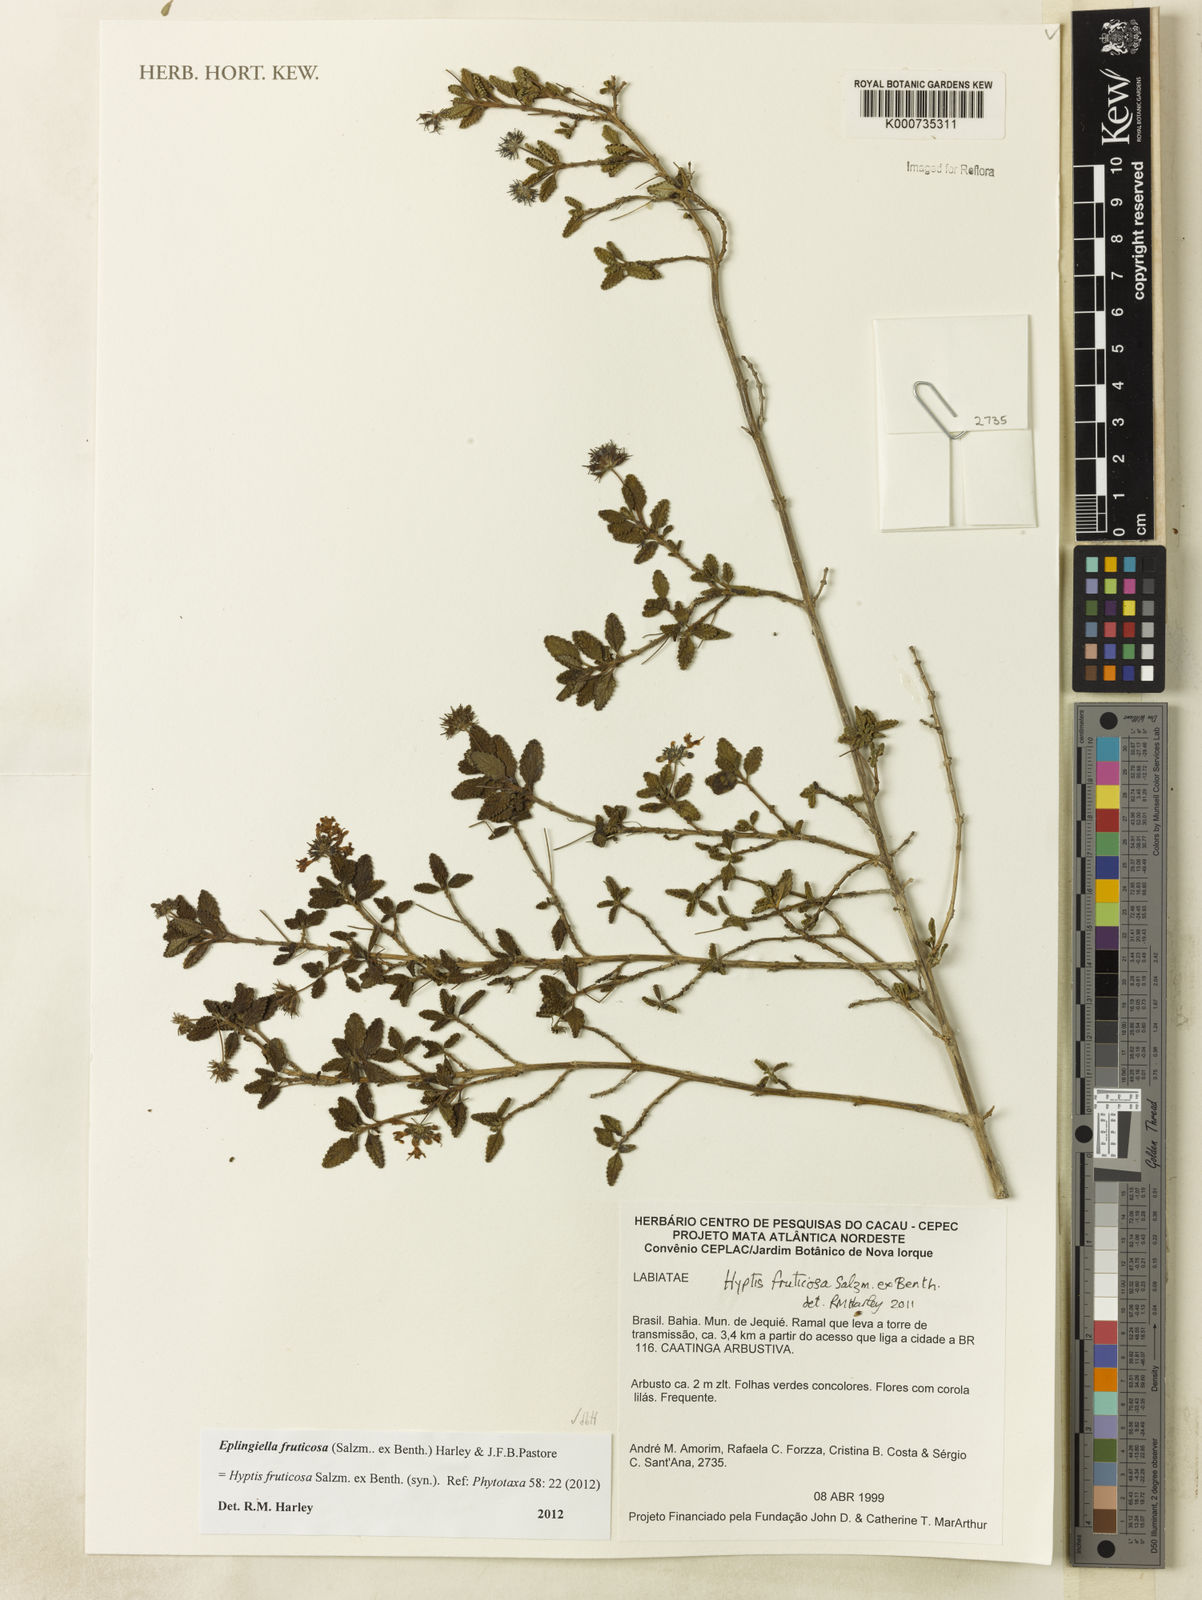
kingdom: Plantae
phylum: Tracheophyta
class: Magnoliopsida
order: Lamiales
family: Lamiaceae
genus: Eplingiella
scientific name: Eplingiella fruticosa
